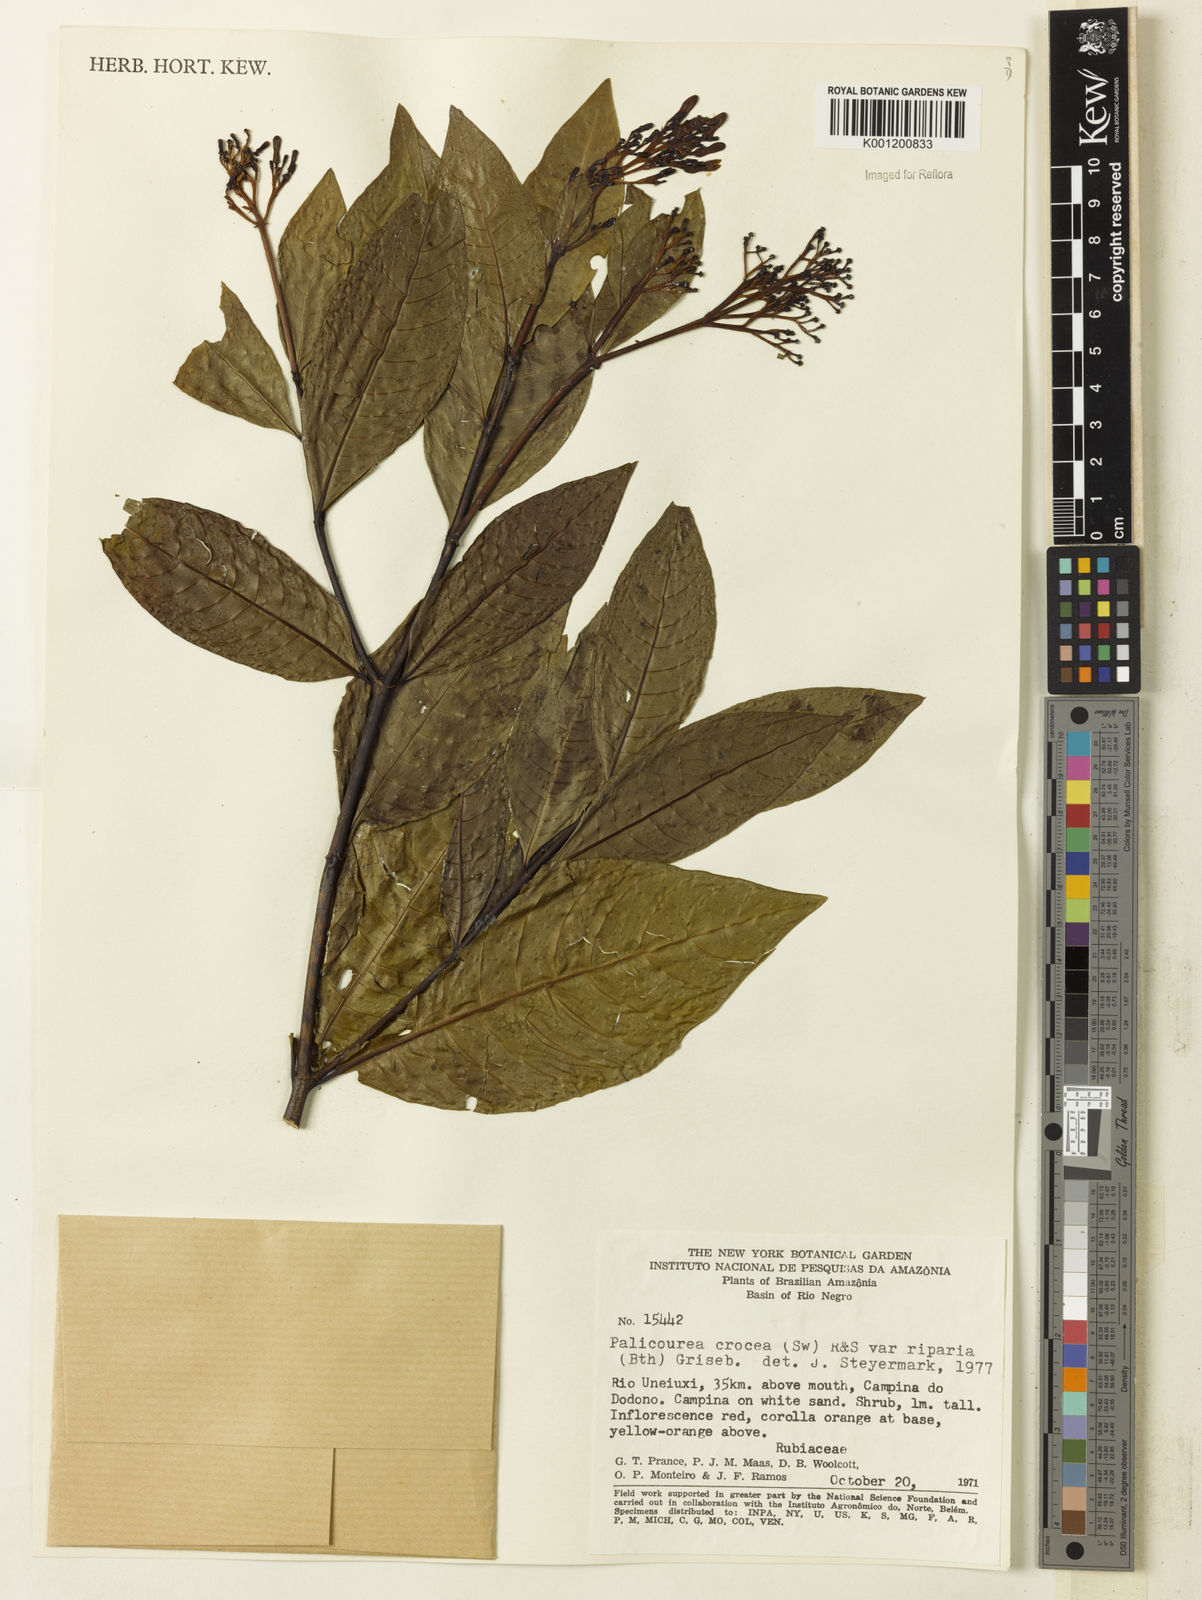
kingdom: Plantae
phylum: Tracheophyta
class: Magnoliopsida
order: Gentianales
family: Rubiaceae
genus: Palicourea
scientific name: Palicourea croceoides
